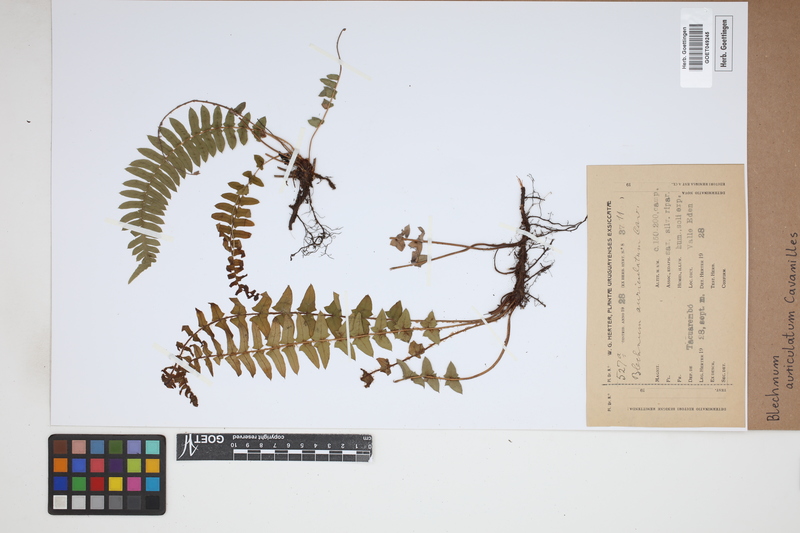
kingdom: Plantae
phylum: Tracheophyta
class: Polypodiopsida
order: Polypodiales
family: Blechnaceae
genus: Blechnum
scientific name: Blechnum auriculatum
